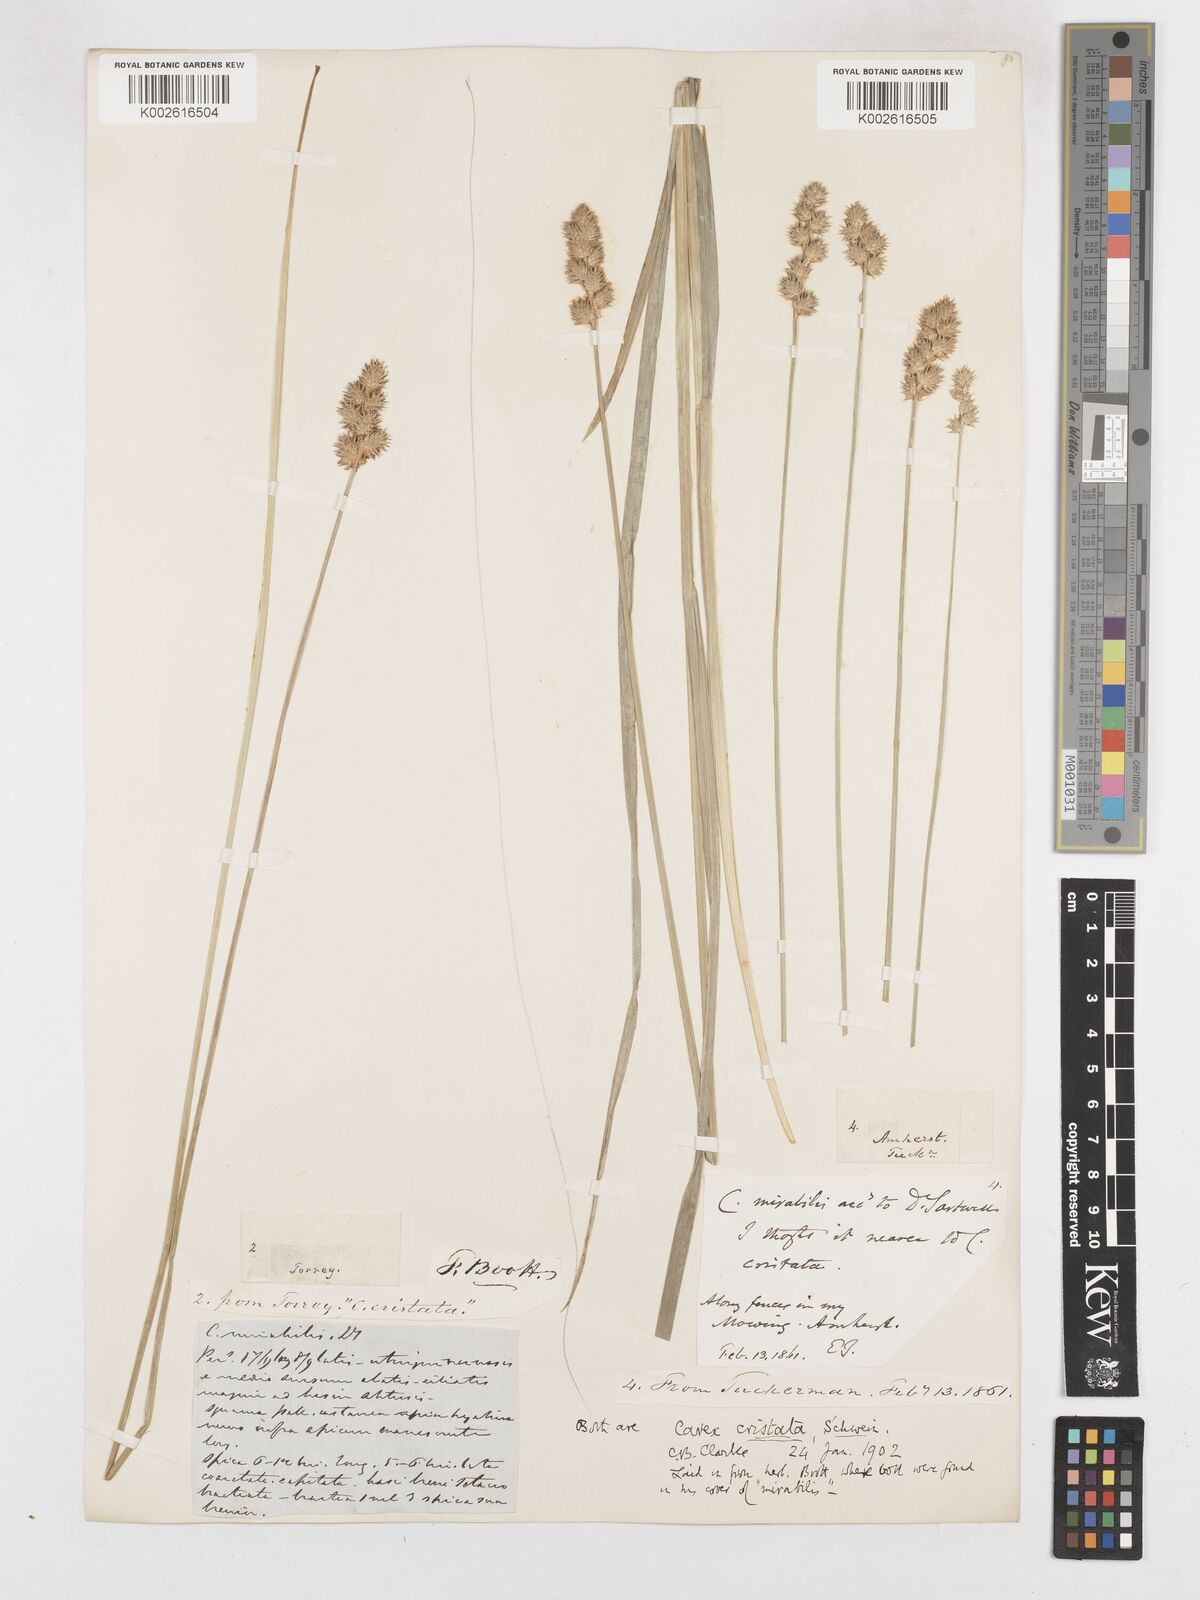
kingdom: Plantae
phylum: Tracheophyta
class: Liliopsida
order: Poales
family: Cyperaceae
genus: Carex
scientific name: Carex cristatella
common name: Crested oval sedge
